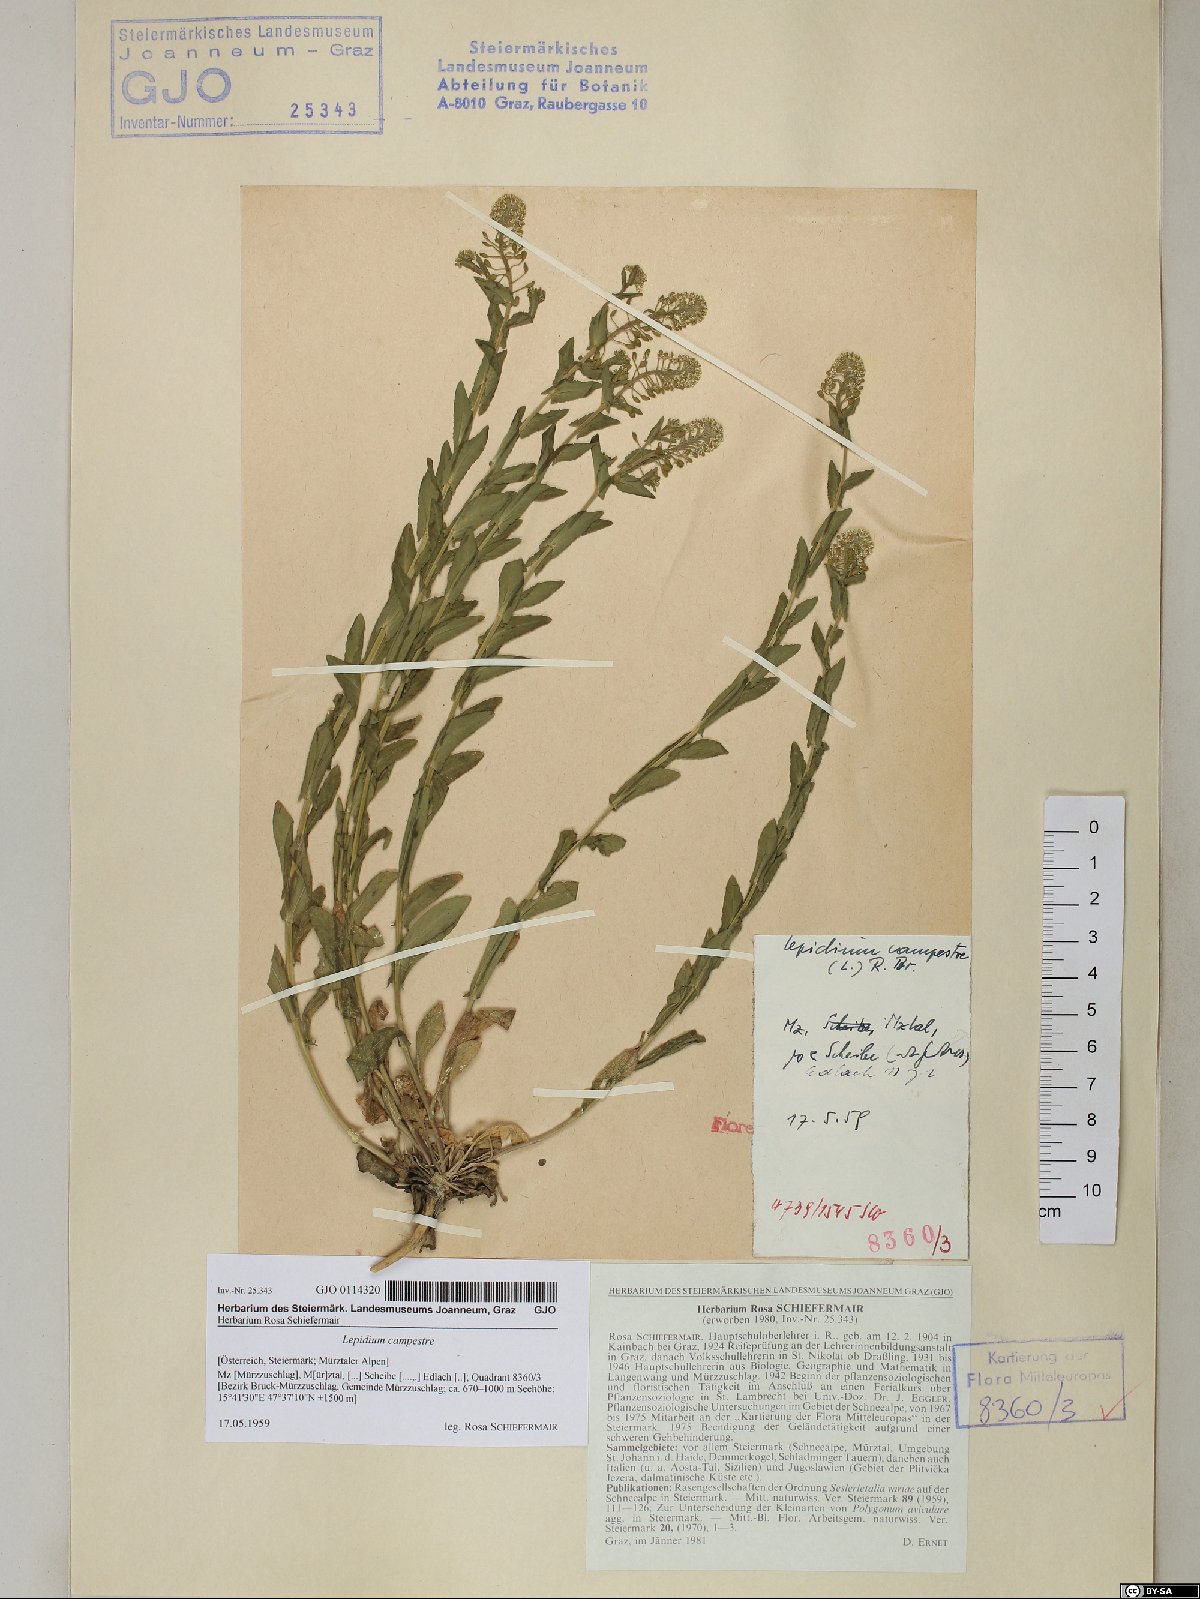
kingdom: Plantae
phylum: Tracheophyta
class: Magnoliopsida
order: Brassicales
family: Brassicaceae
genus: Lepidium
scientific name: Lepidium campestre
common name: Field pepperwort
